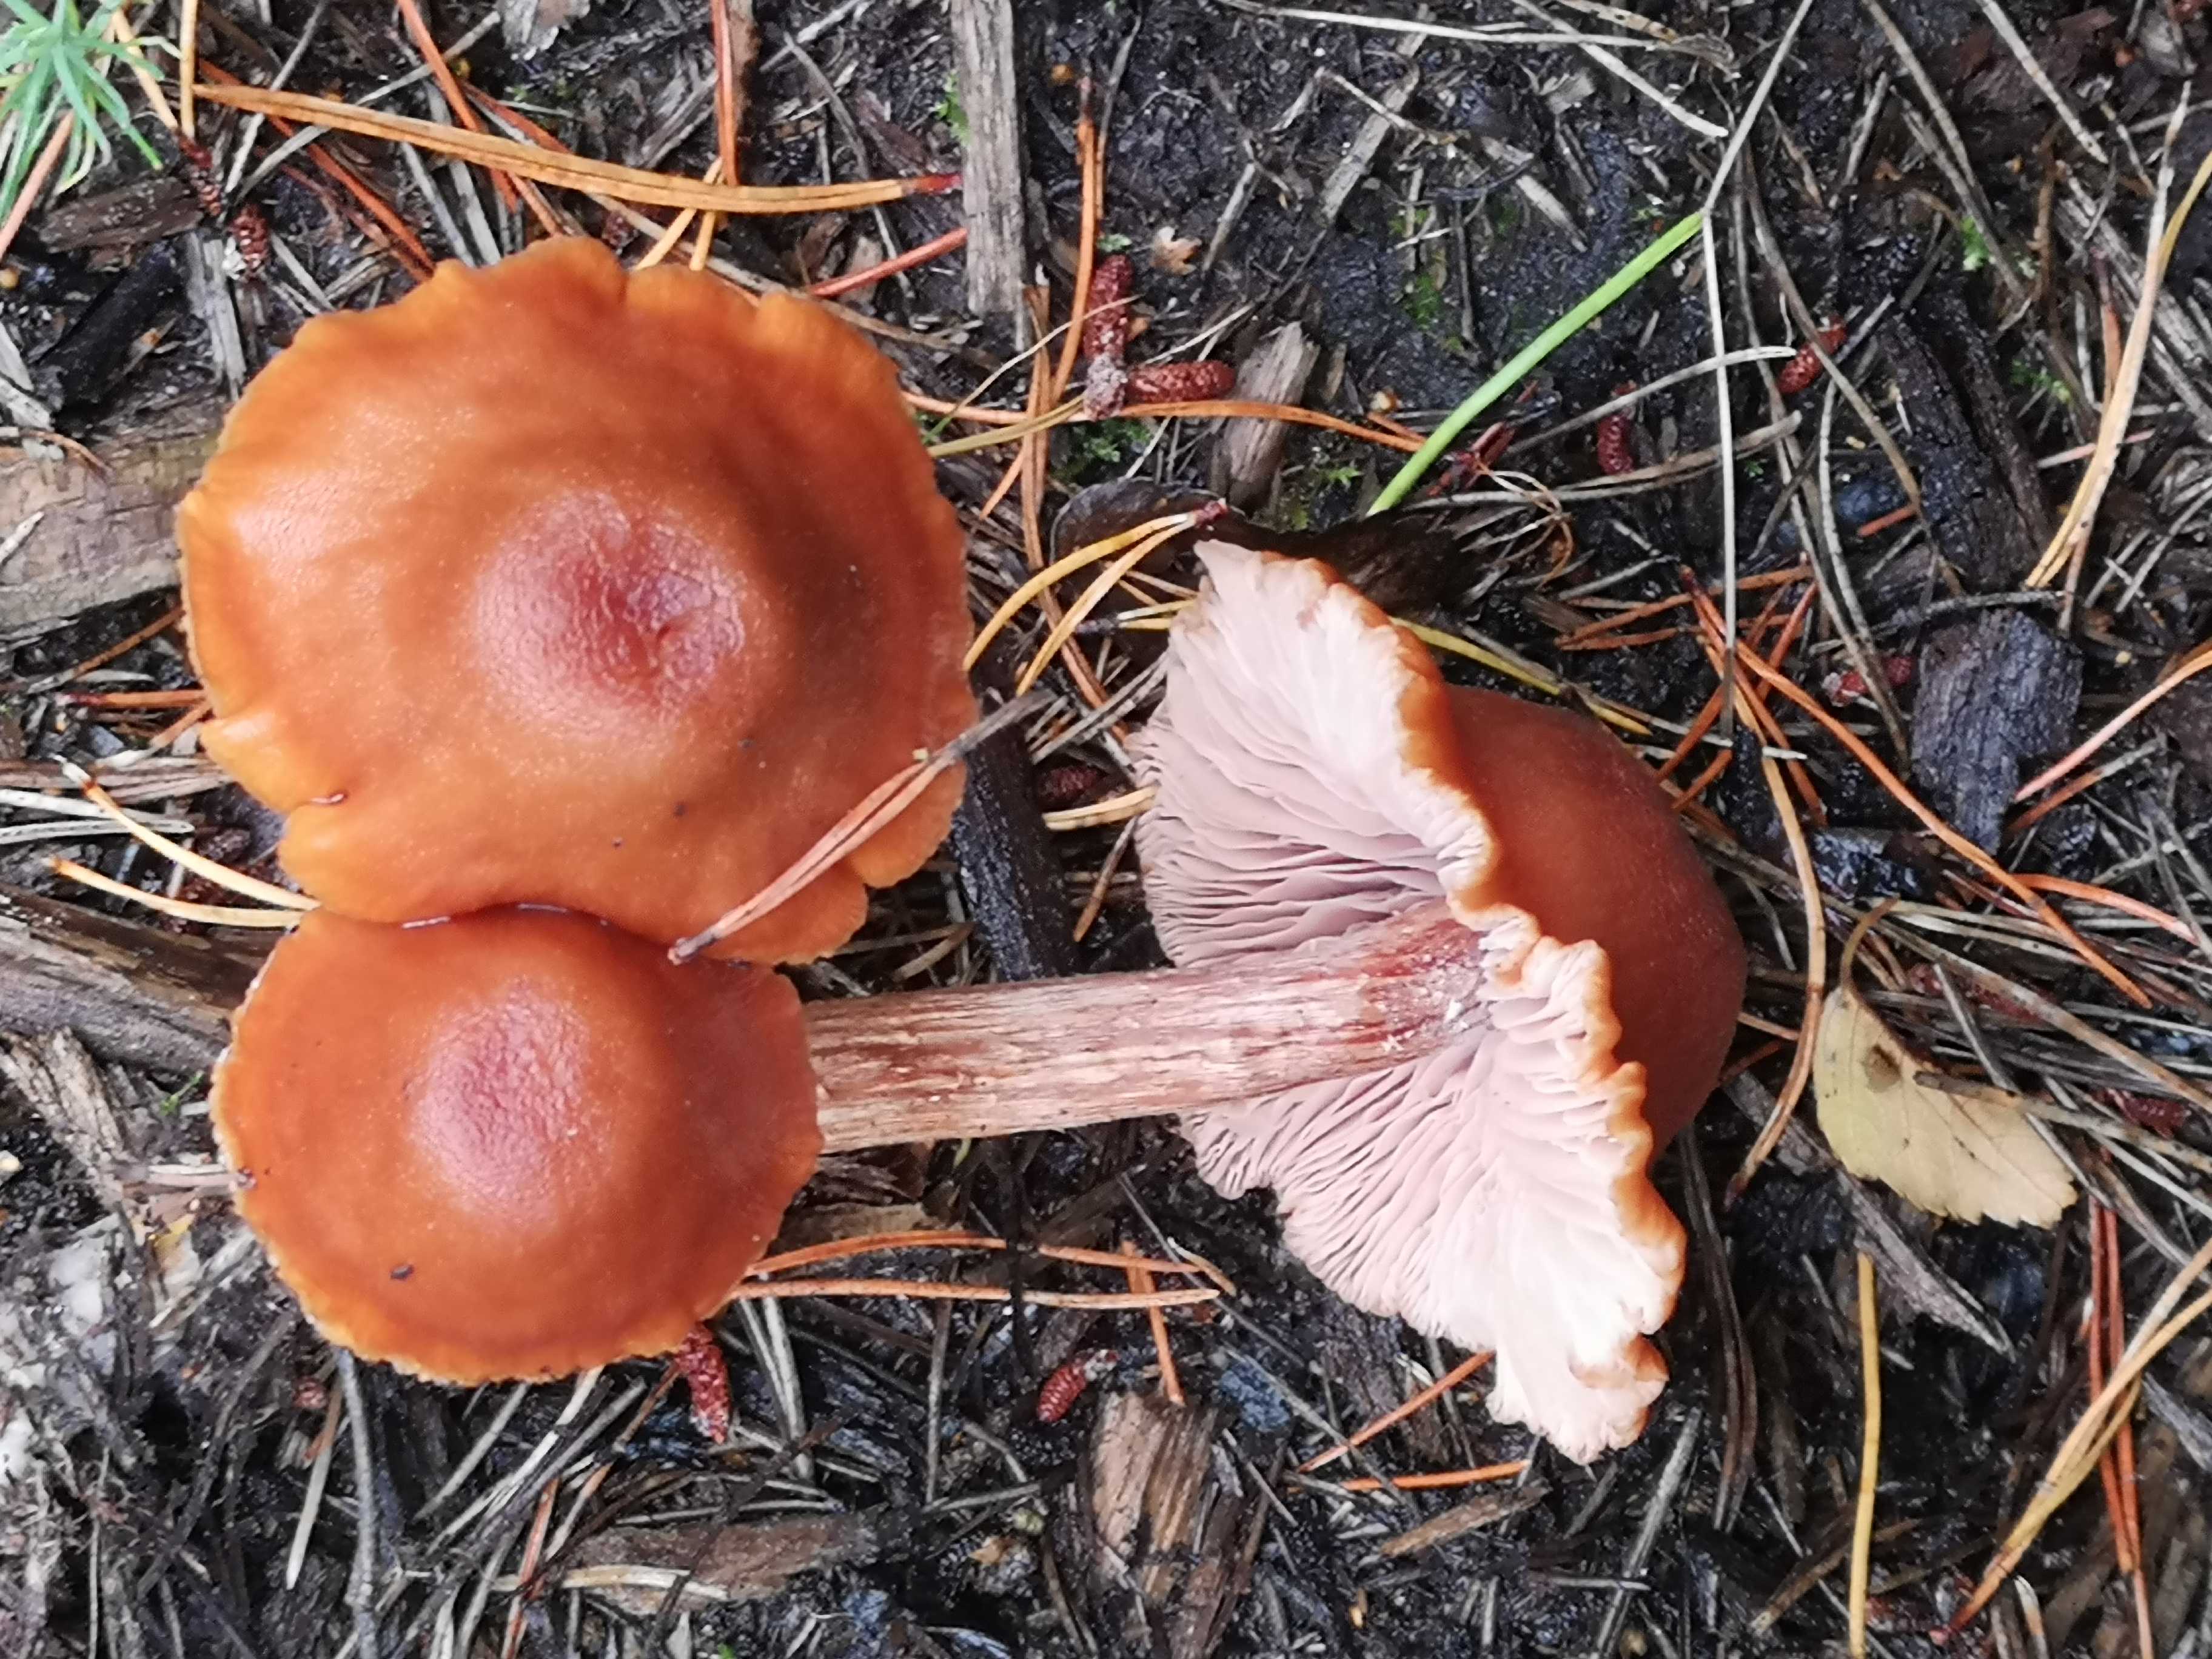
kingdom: Fungi
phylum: Basidiomycota
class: Agaricomycetes
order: Agaricales
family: Hydnangiaceae
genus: Laccaria
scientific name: Laccaria proxima
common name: stor ametysthat
